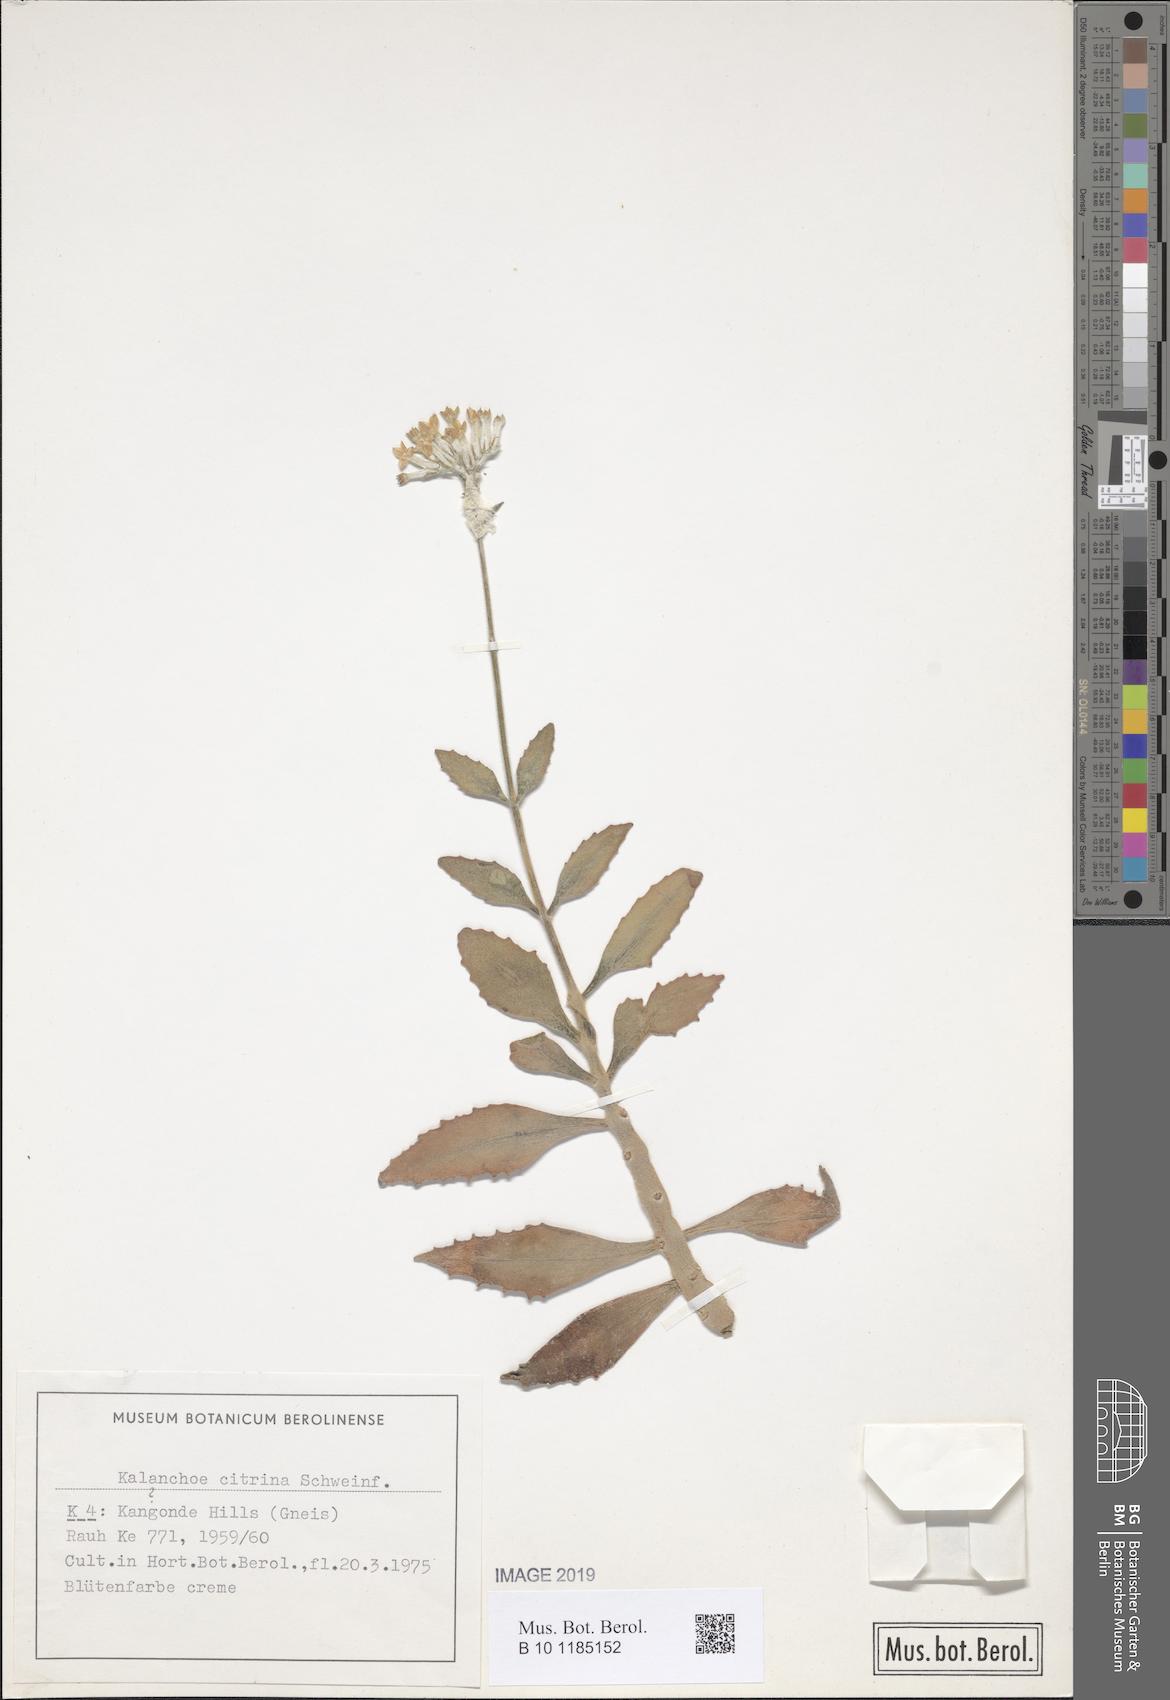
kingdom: Plantae
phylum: Tracheophyta
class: Magnoliopsida
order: Saxifragales
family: Crassulaceae
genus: Kalanchoe
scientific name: Kalanchoe citrina
